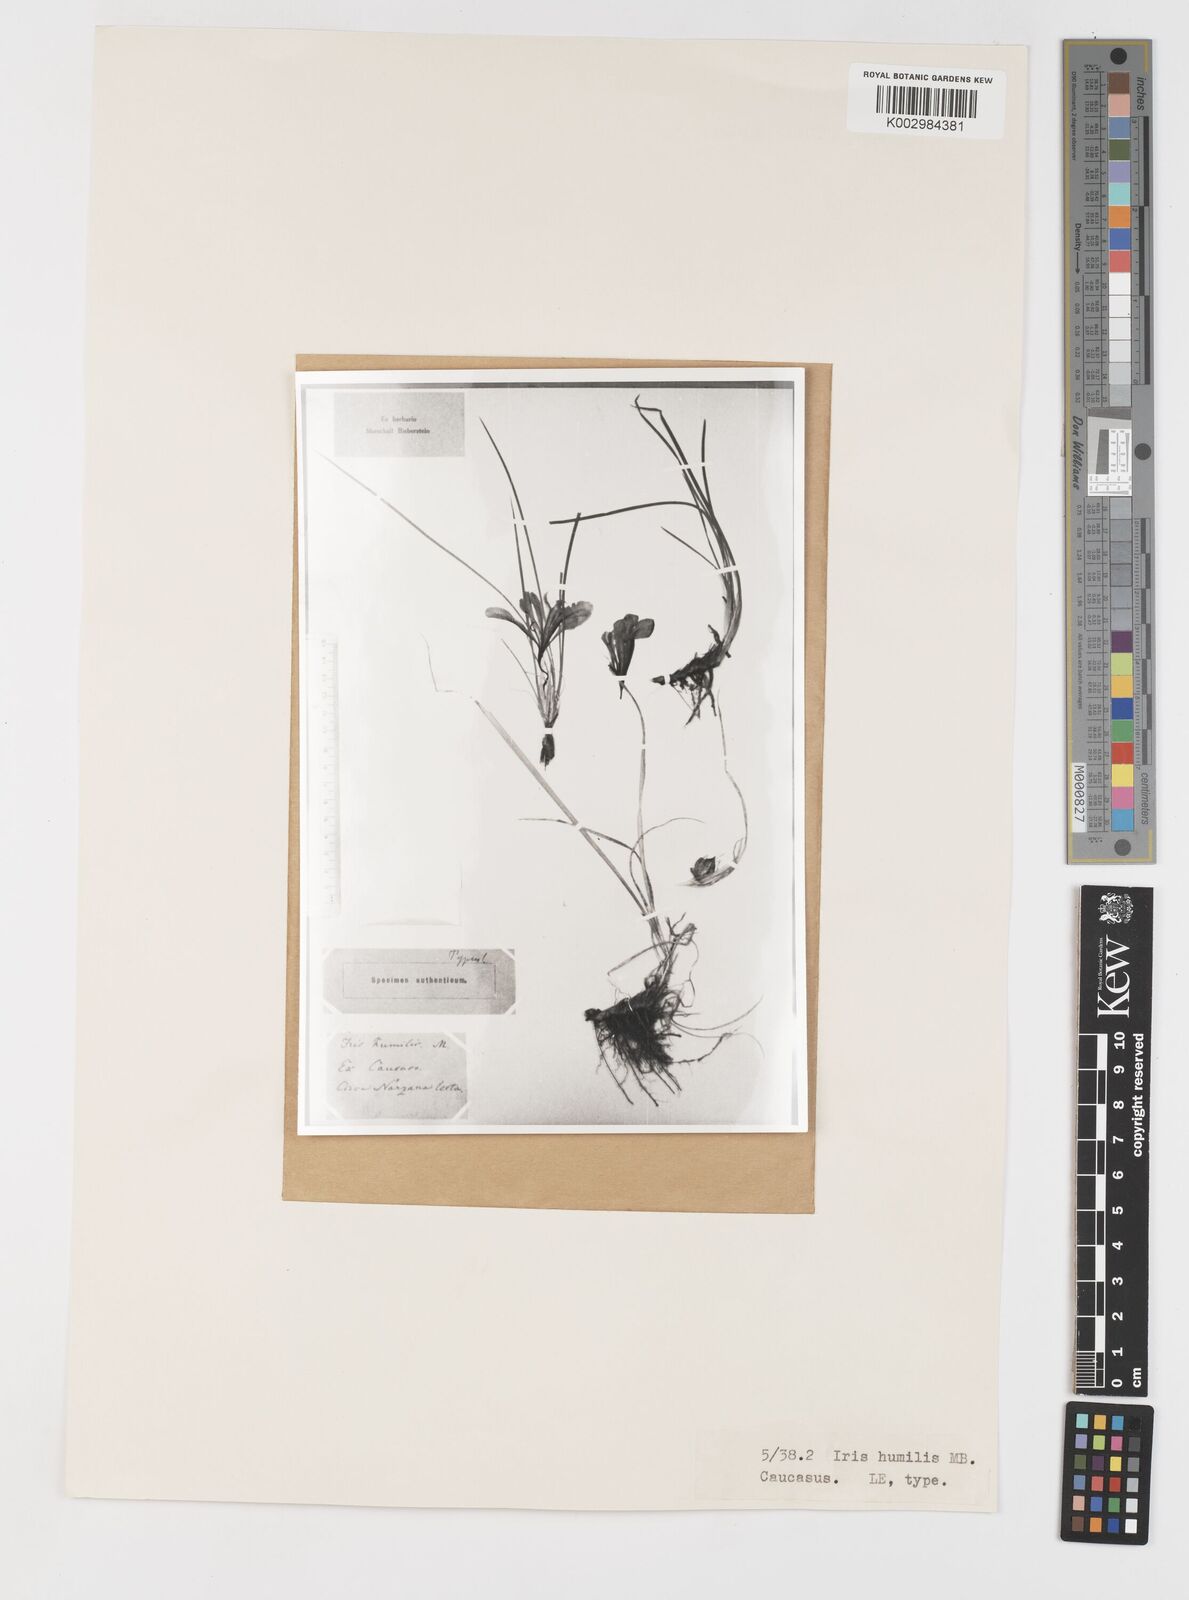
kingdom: Plantae
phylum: Tracheophyta
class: Liliopsida
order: Asparagales
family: Iridaceae
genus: Iris
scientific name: Iris pontica
